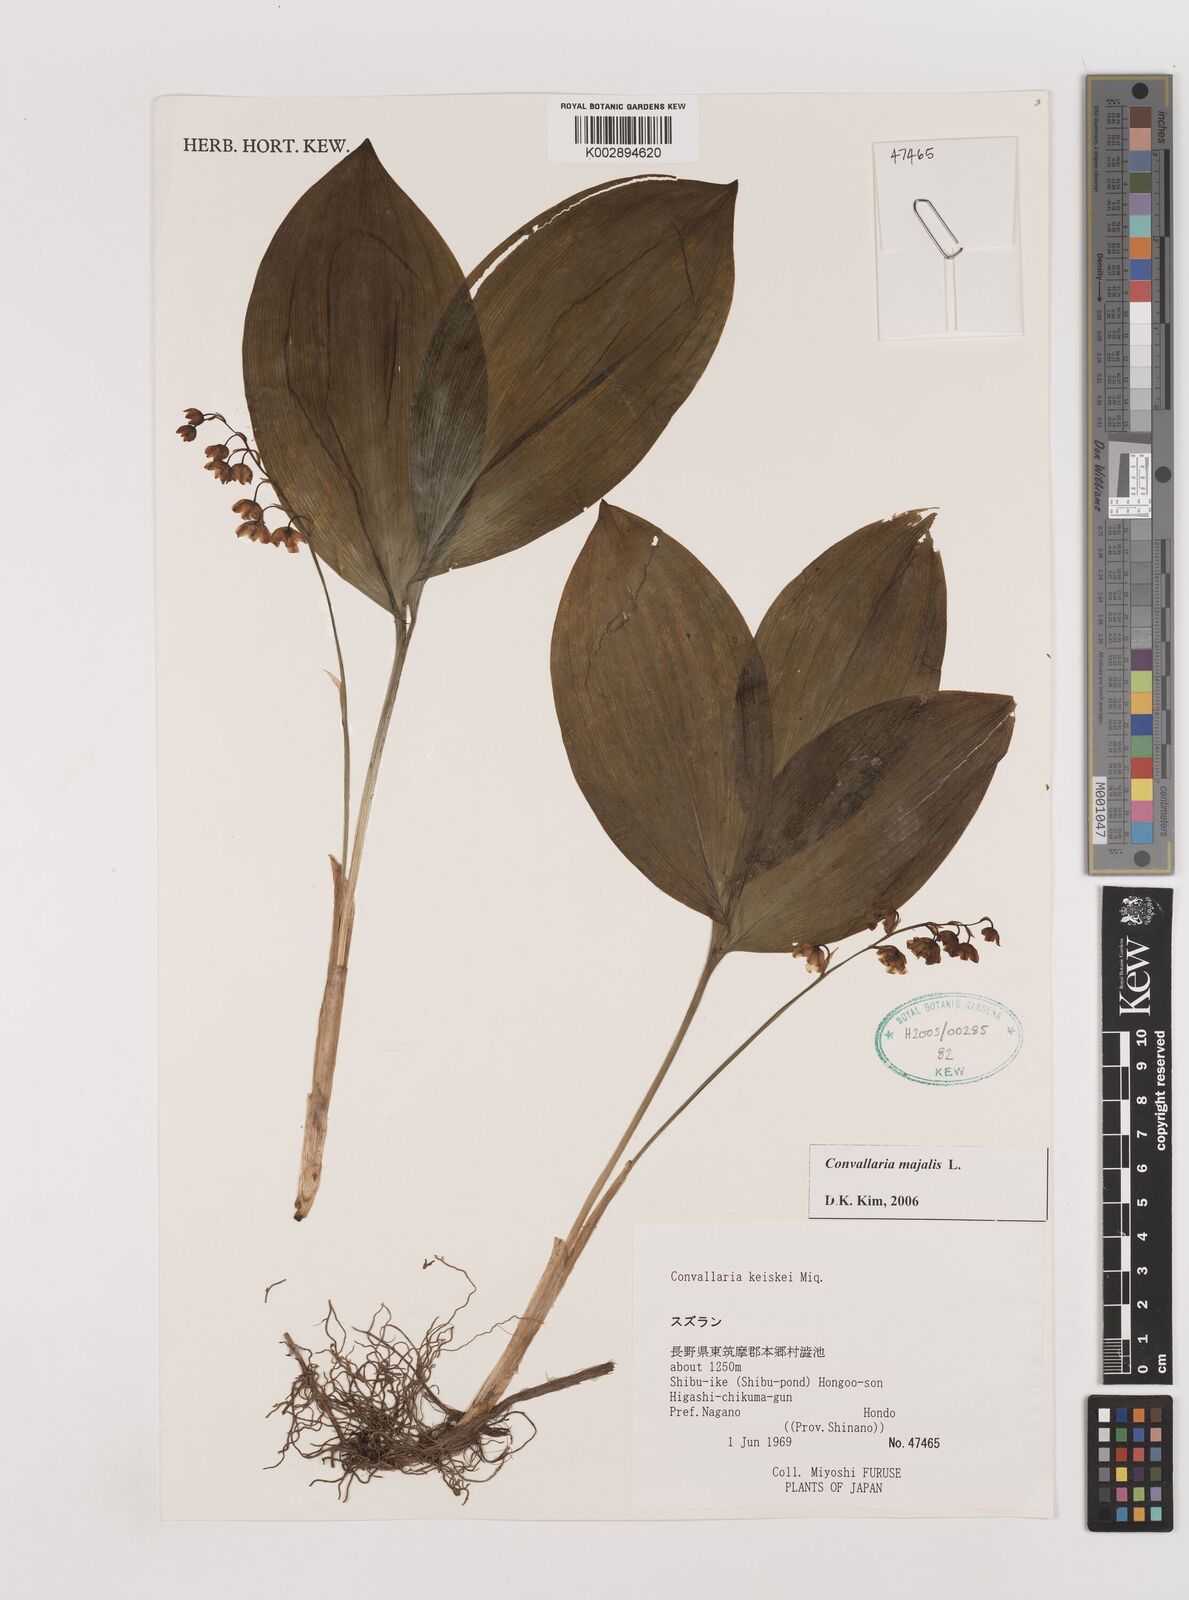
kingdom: Plantae
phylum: Tracheophyta
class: Liliopsida
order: Asparagales
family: Asparagaceae
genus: Ophiopogon
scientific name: Ophiopogon
